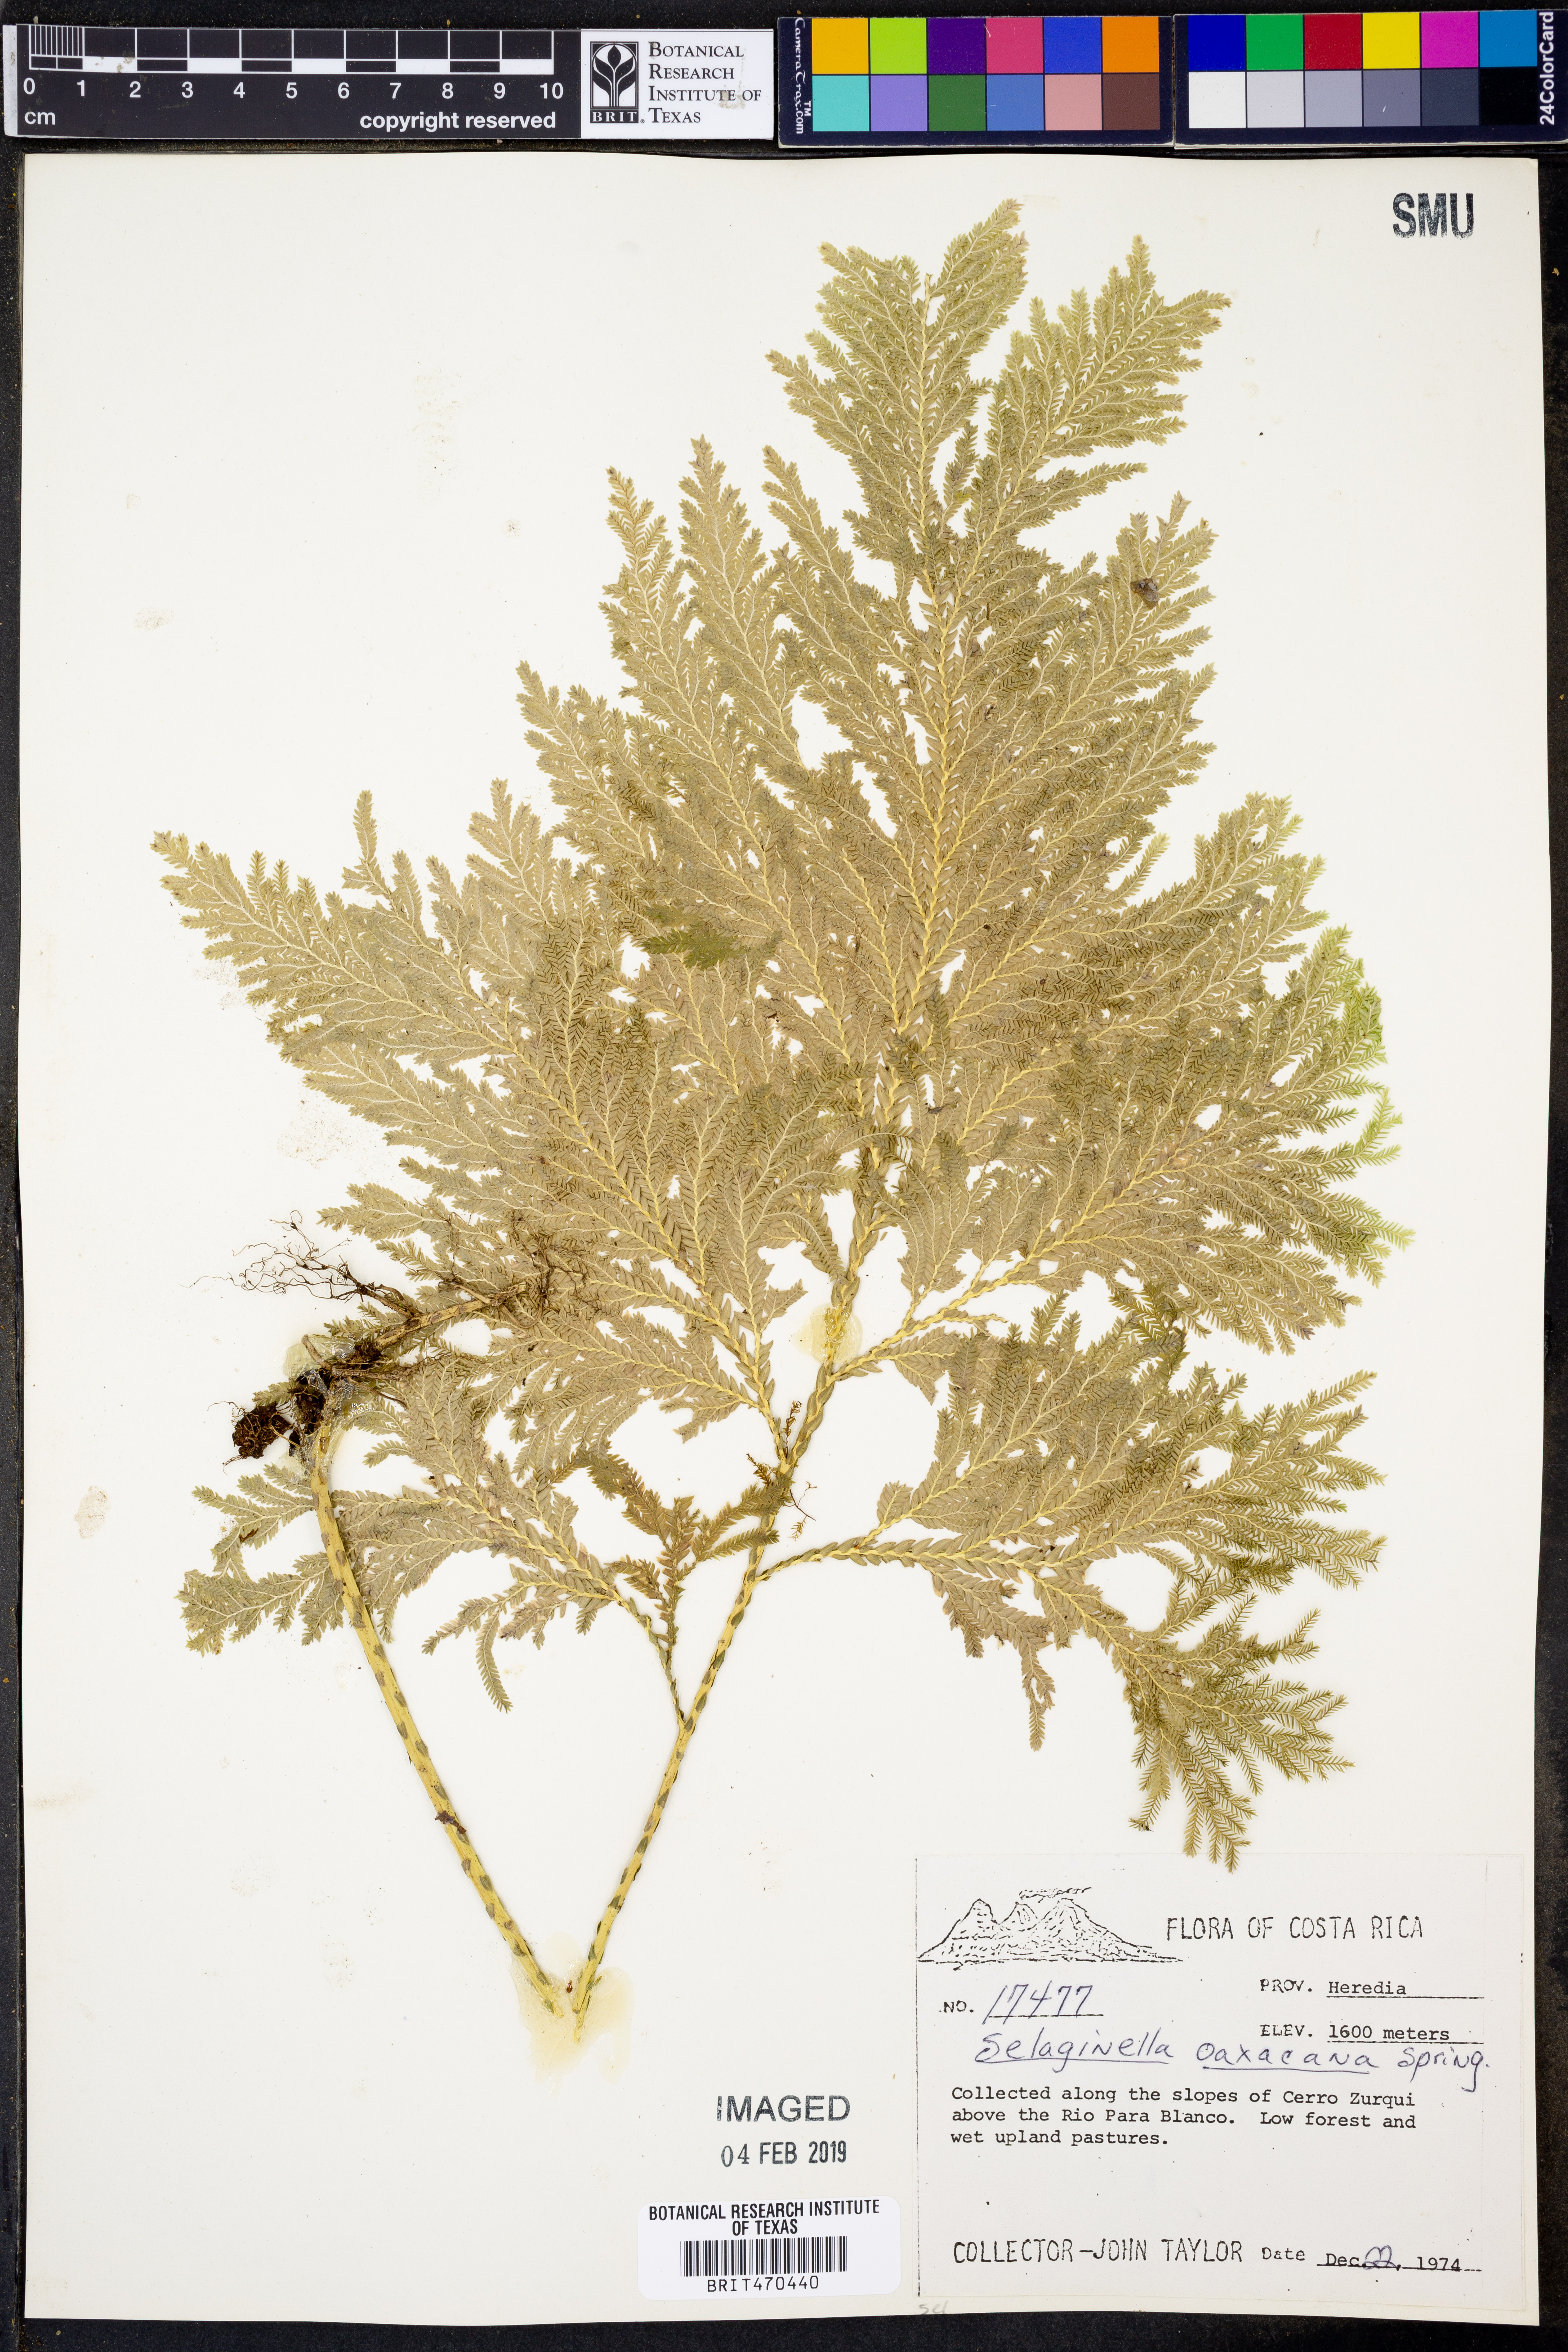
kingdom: Plantae
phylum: Tracheophyta
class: Lycopodiopsida
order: Selaginellales
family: Selaginellaceae
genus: Selaginella
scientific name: Selaginella oaxacana
